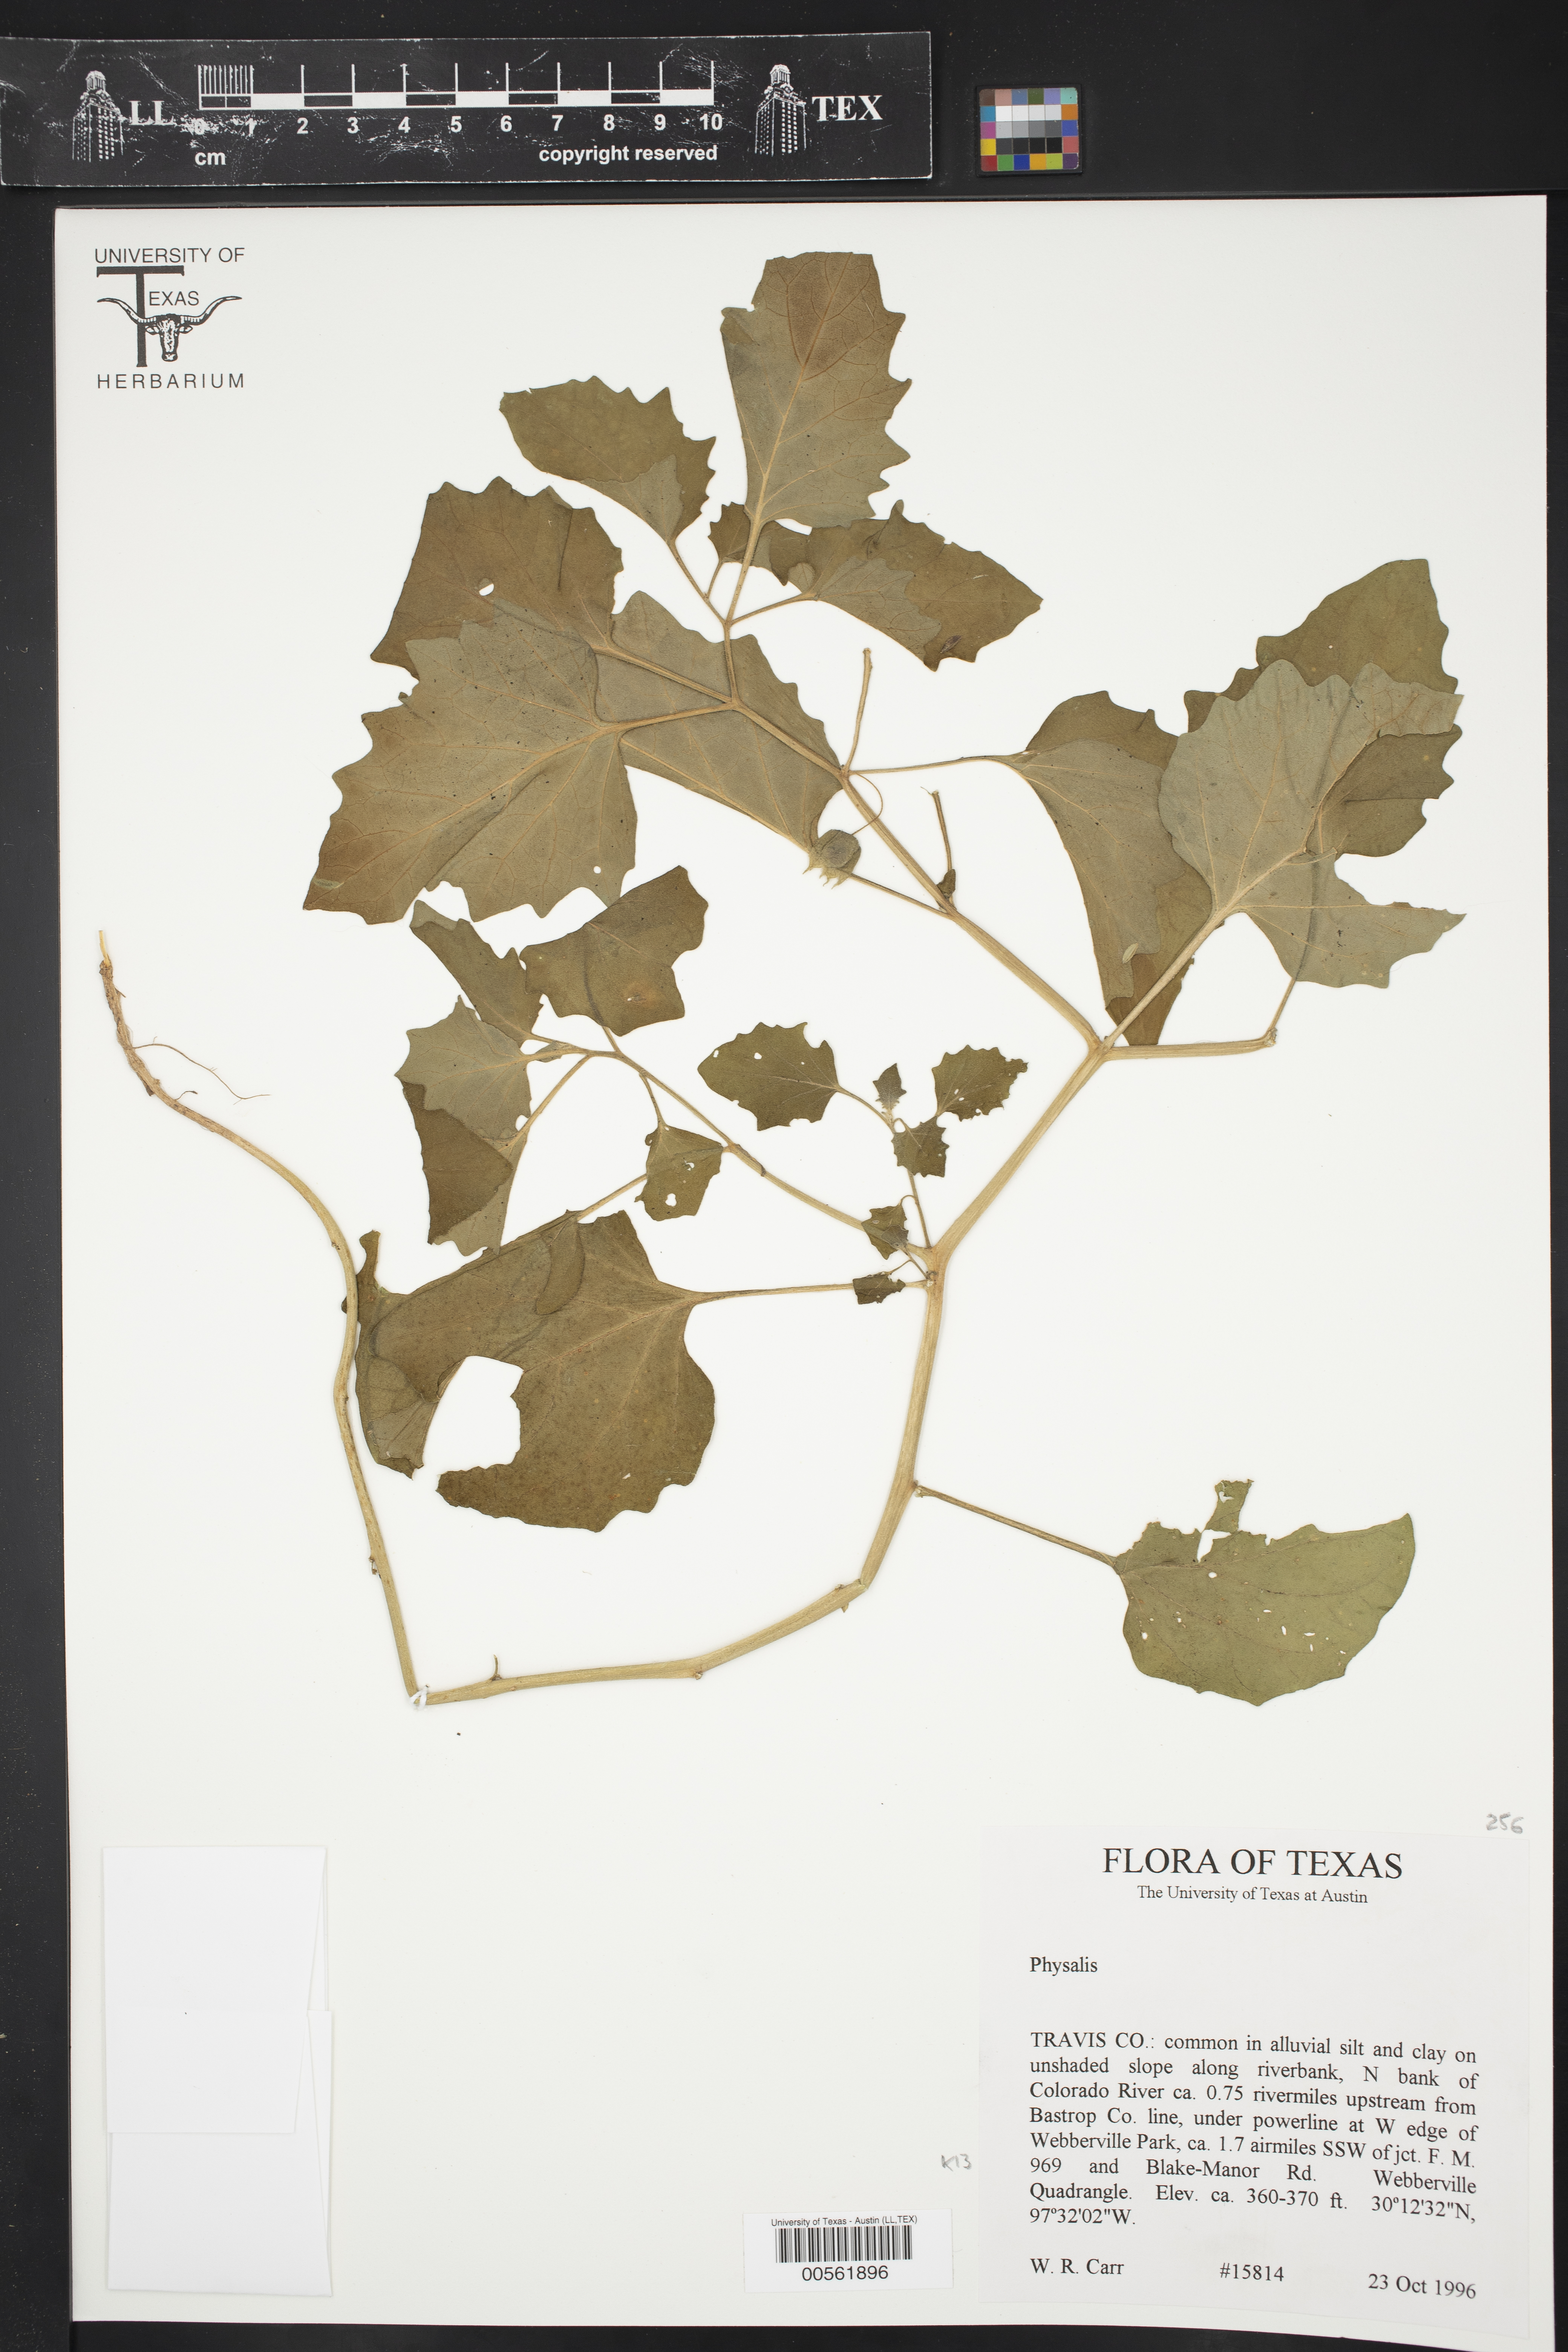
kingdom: Plantae
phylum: Tracheophyta
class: Magnoliopsida
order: Solanales
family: Solanaceae
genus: Physalis
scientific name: Physalis
